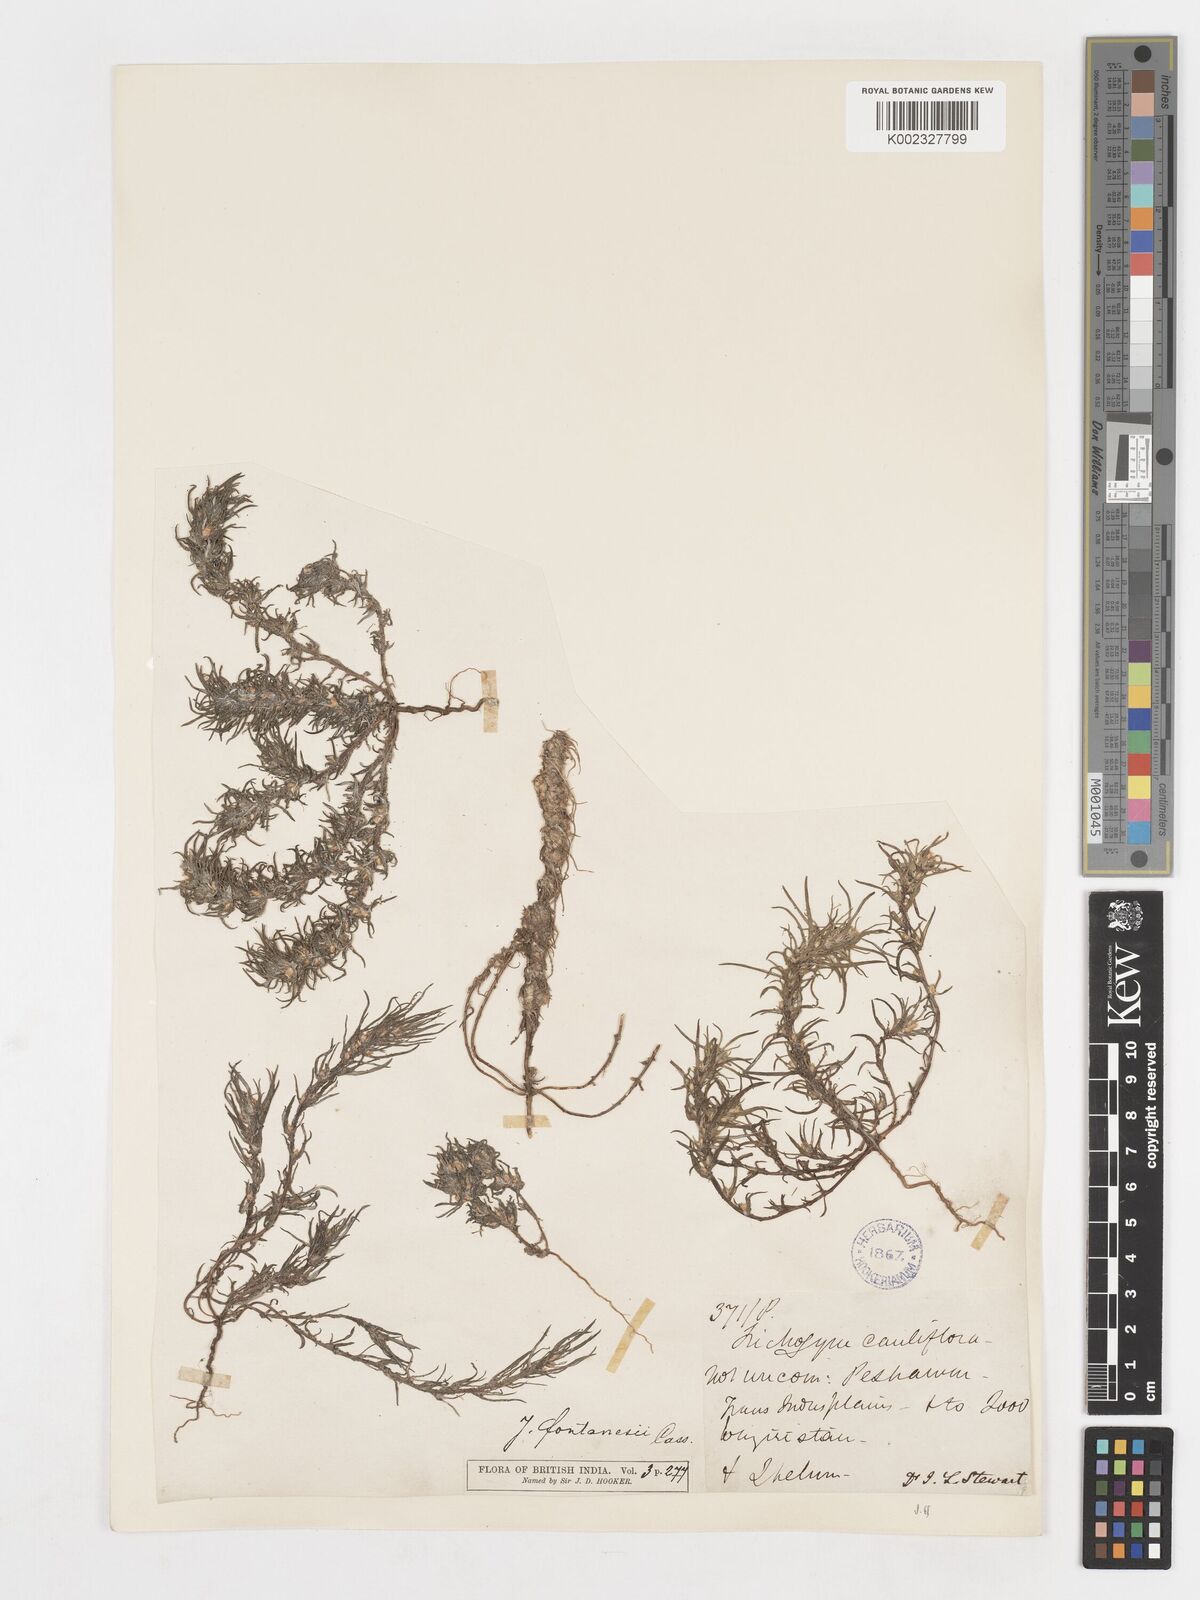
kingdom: Plantae
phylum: Tracheophyta
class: Magnoliopsida
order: Asterales
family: Asteraceae
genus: Ifloga
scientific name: Ifloga spicata
